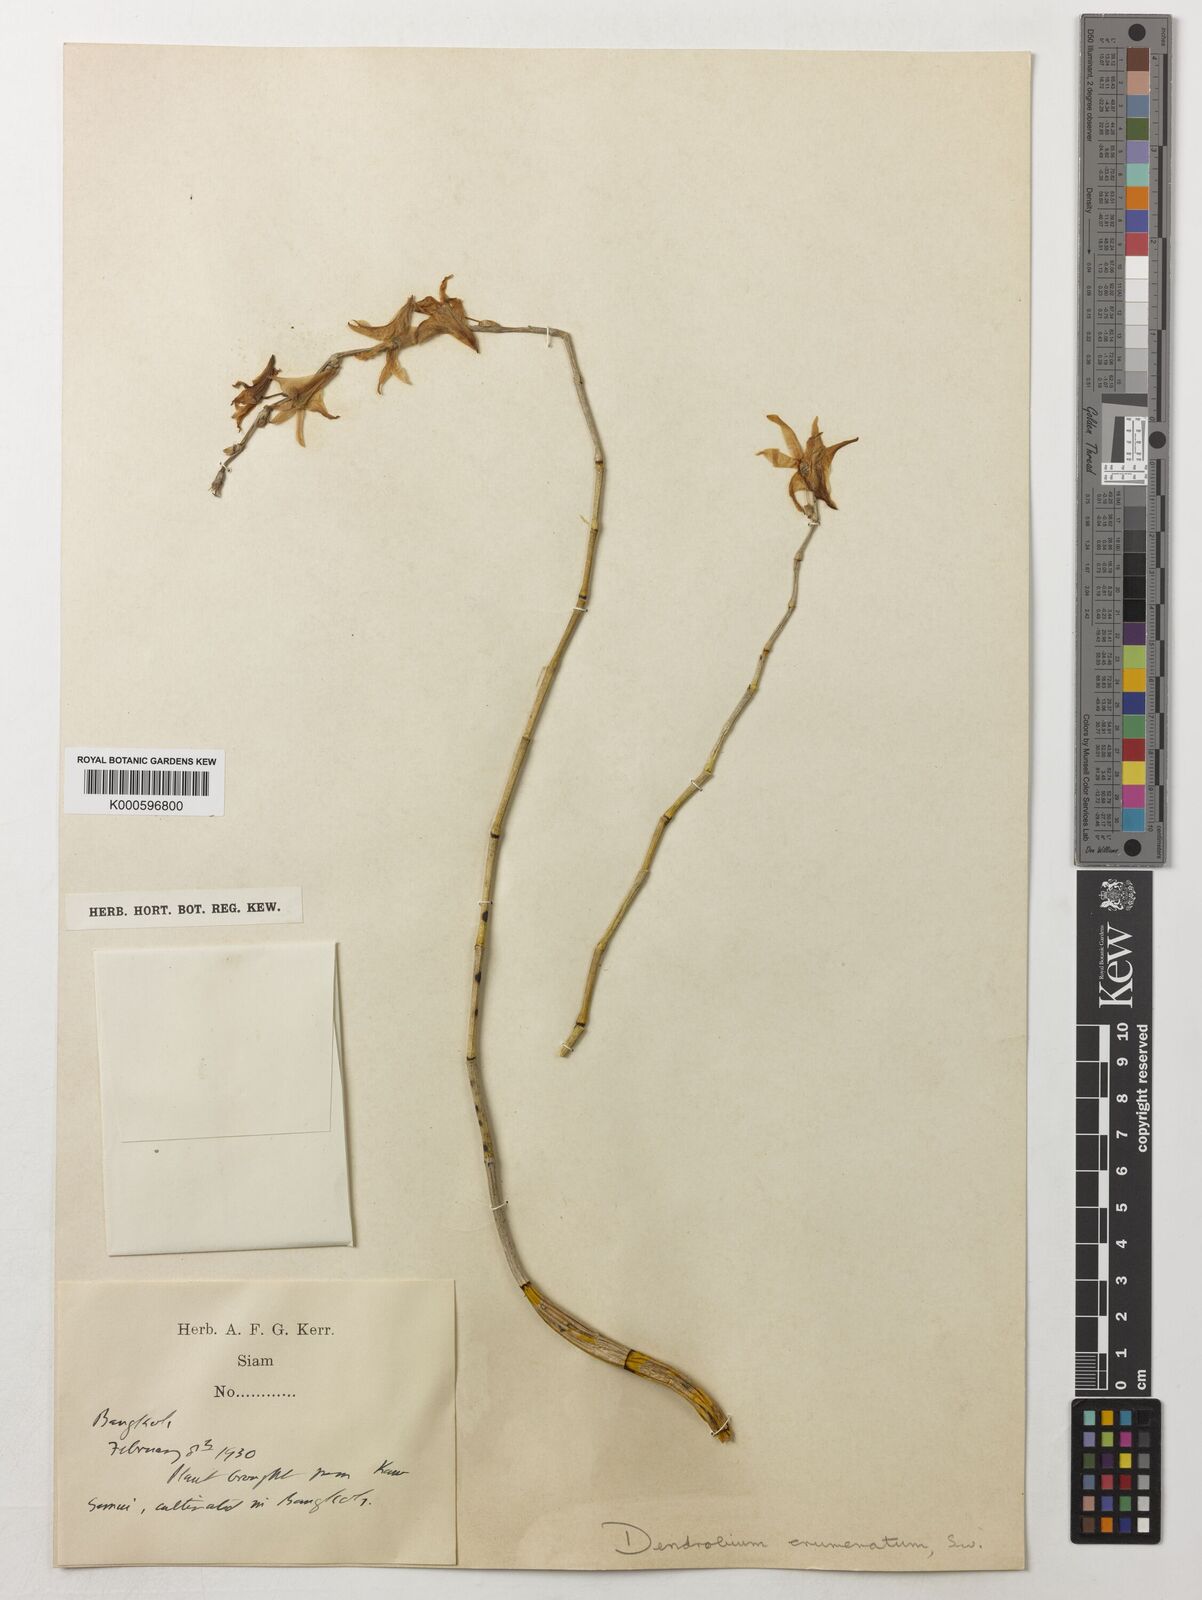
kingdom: Plantae
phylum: Tracheophyta
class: Liliopsida
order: Asparagales
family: Orchidaceae
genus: Dendrobium
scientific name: Dendrobium crumenatum
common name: Orchid
